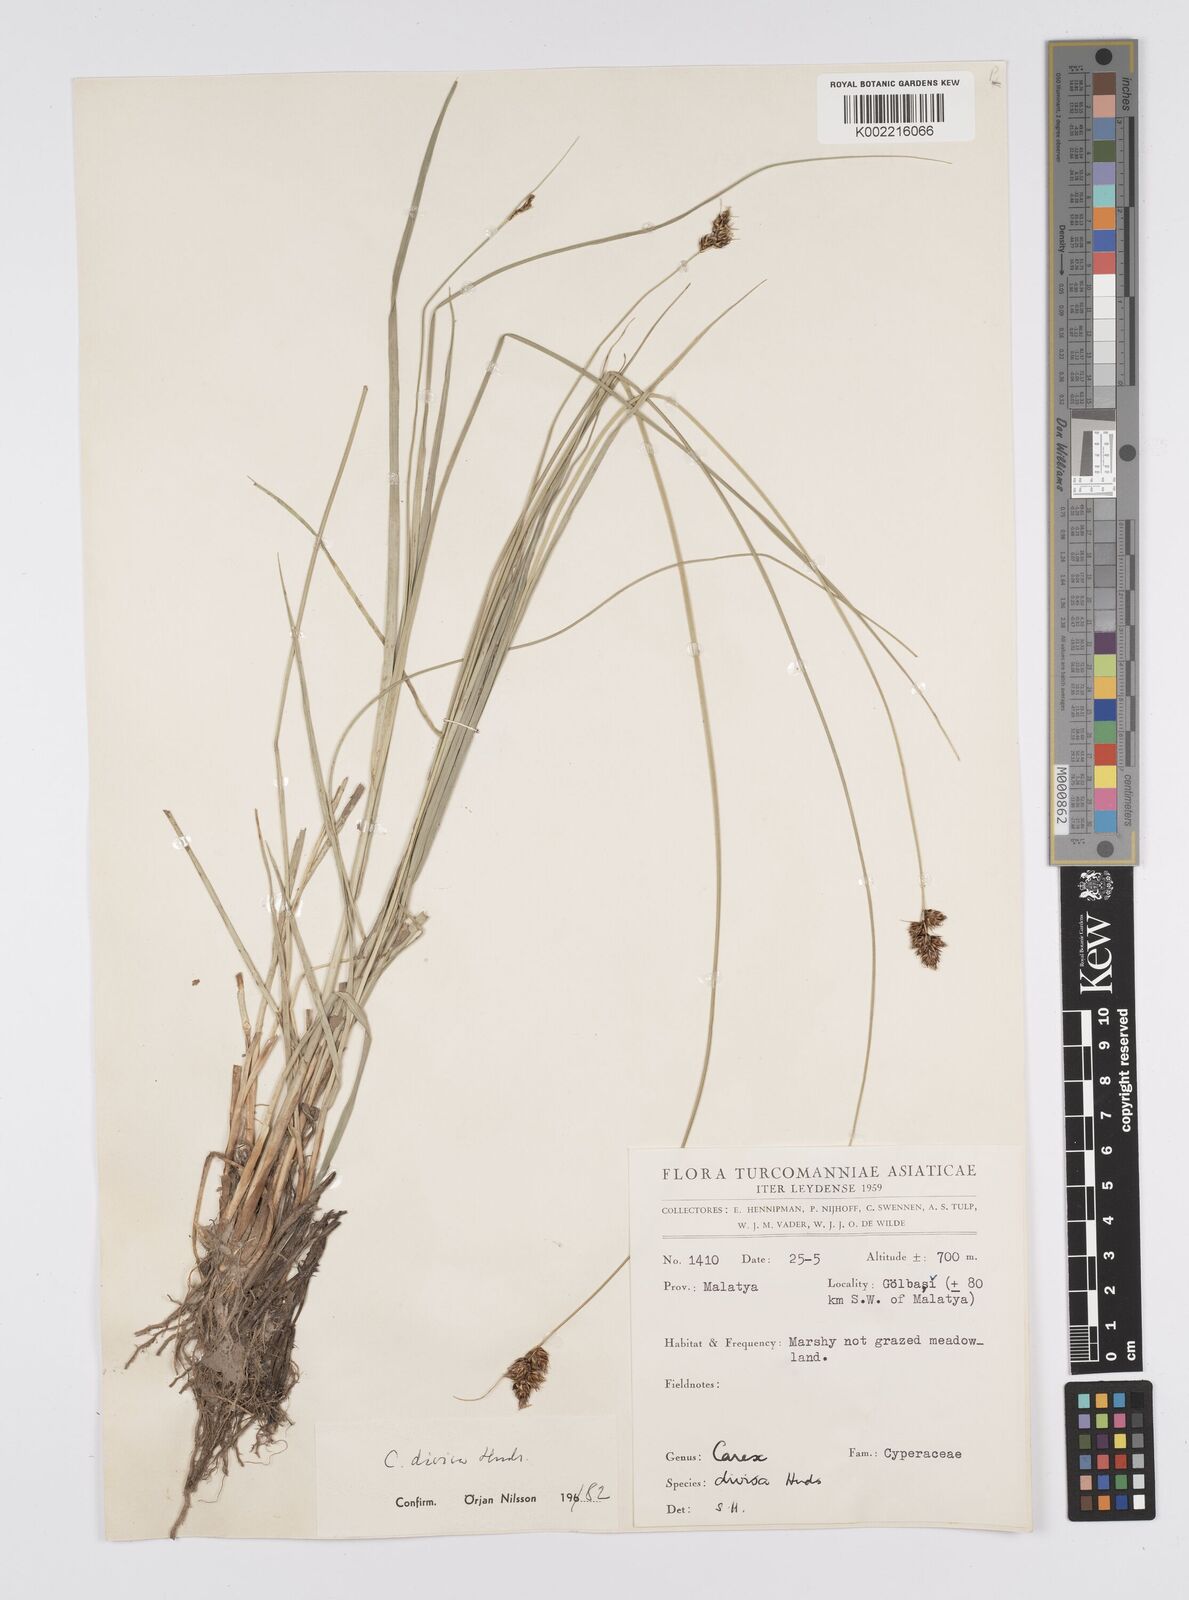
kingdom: Plantae
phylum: Tracheophyta
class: Liliopsida
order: Poales
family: Cyperaceae
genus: Carex
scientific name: Carex divisa
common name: Divided sedge
